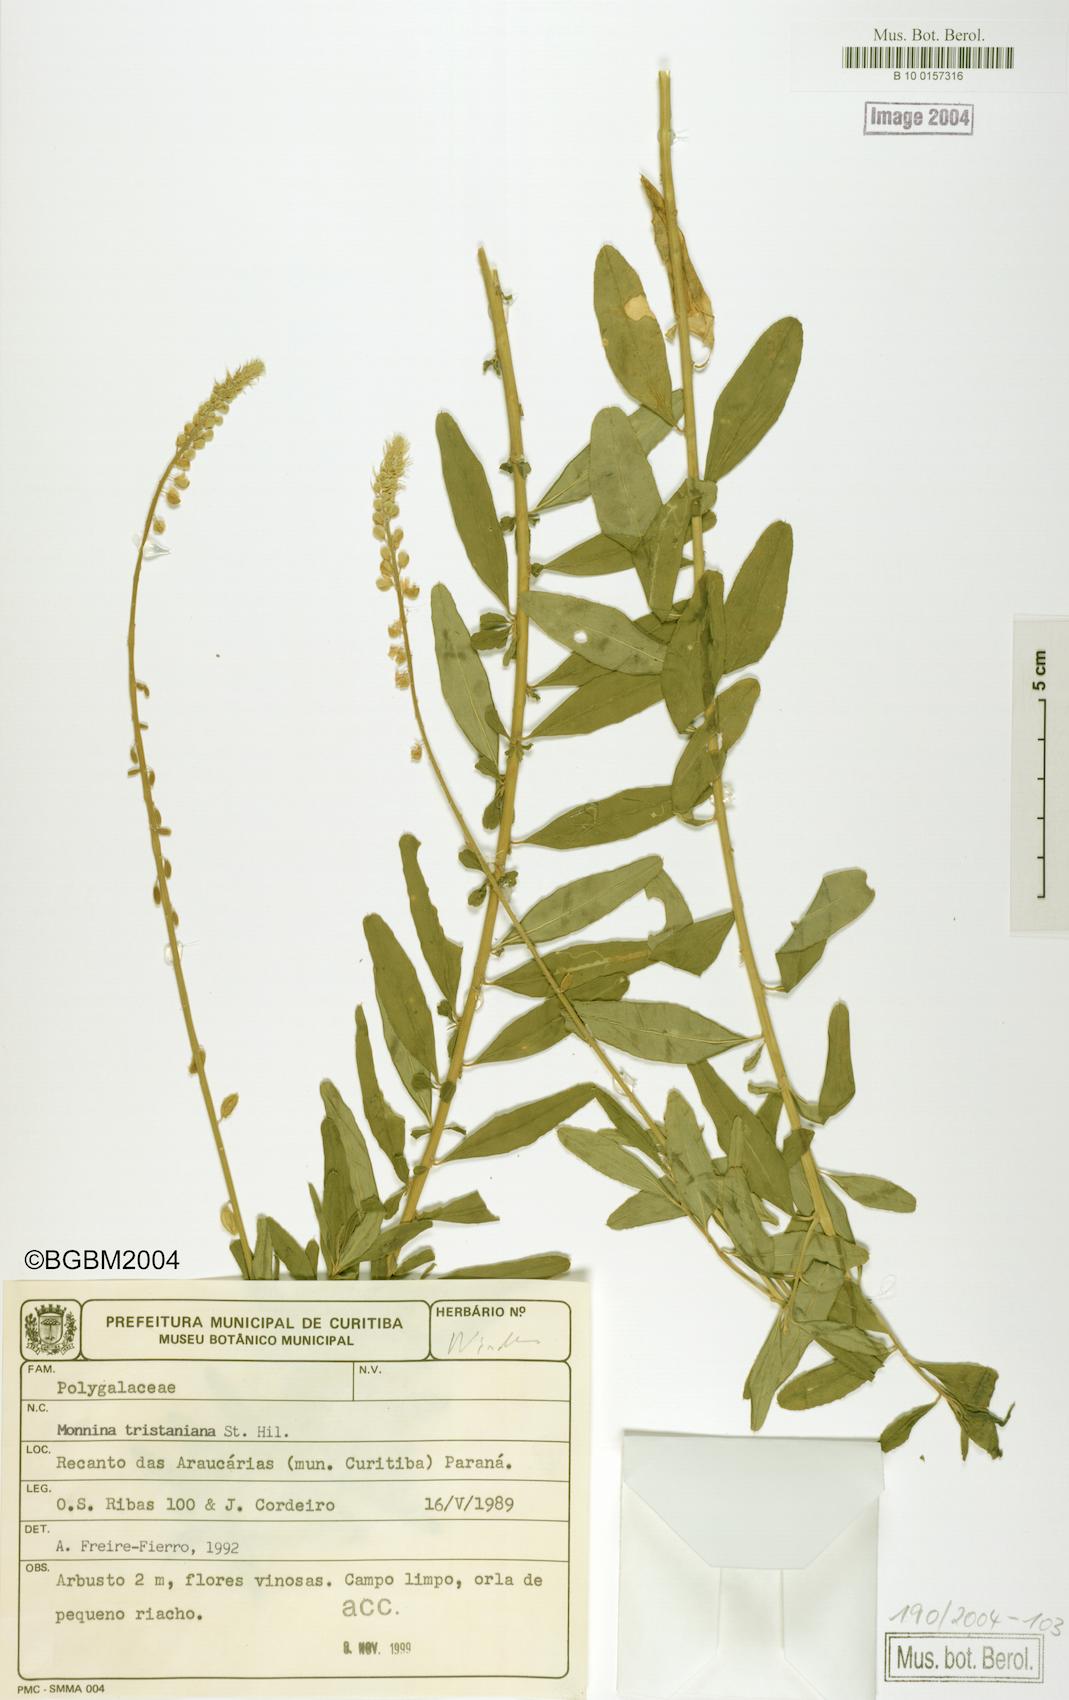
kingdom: Plantae
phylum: Tracheophyta
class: Magnoliopsida
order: Fabales
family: Polygalaceae
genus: Monnina
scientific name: Monnina tristaniana
